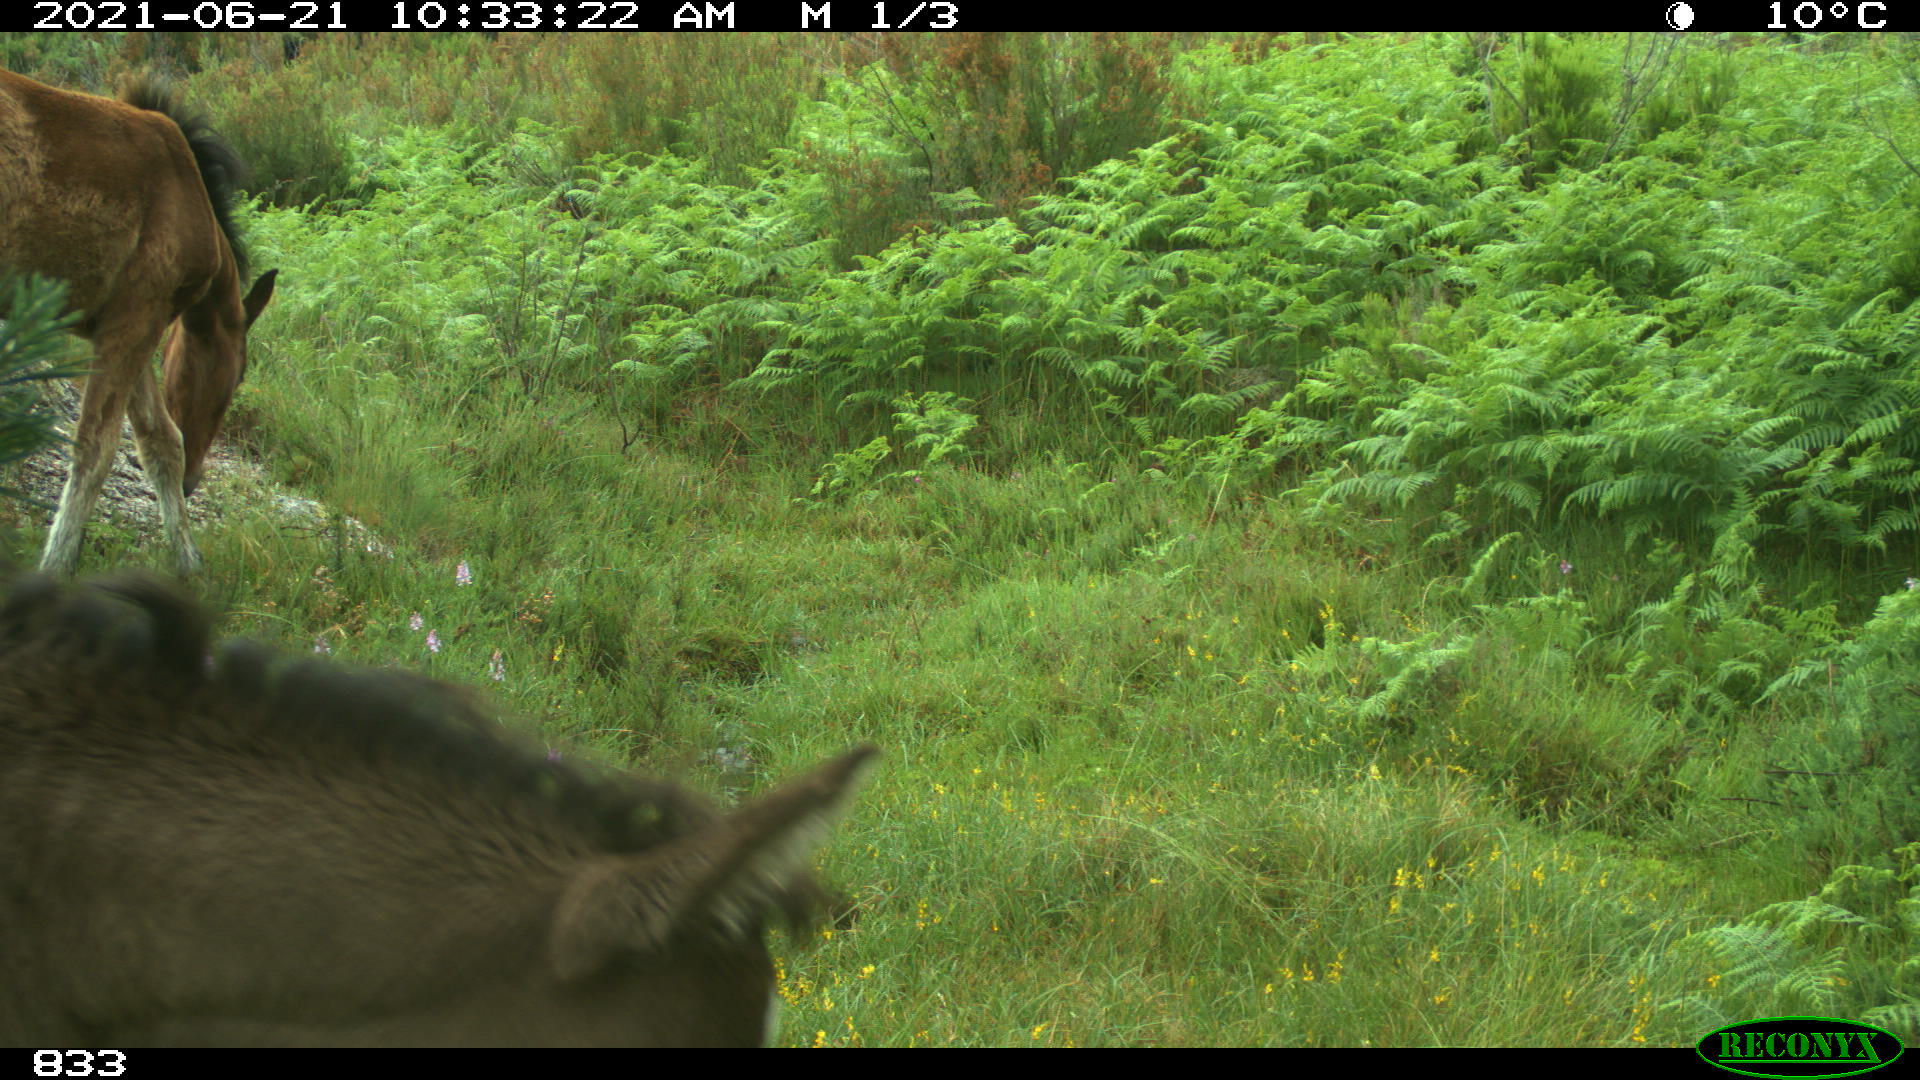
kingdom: Animalia
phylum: Chordata
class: Mammalia
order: Perissodactyla
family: Equidae
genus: Equus
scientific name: Equus caballus
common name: Horse
